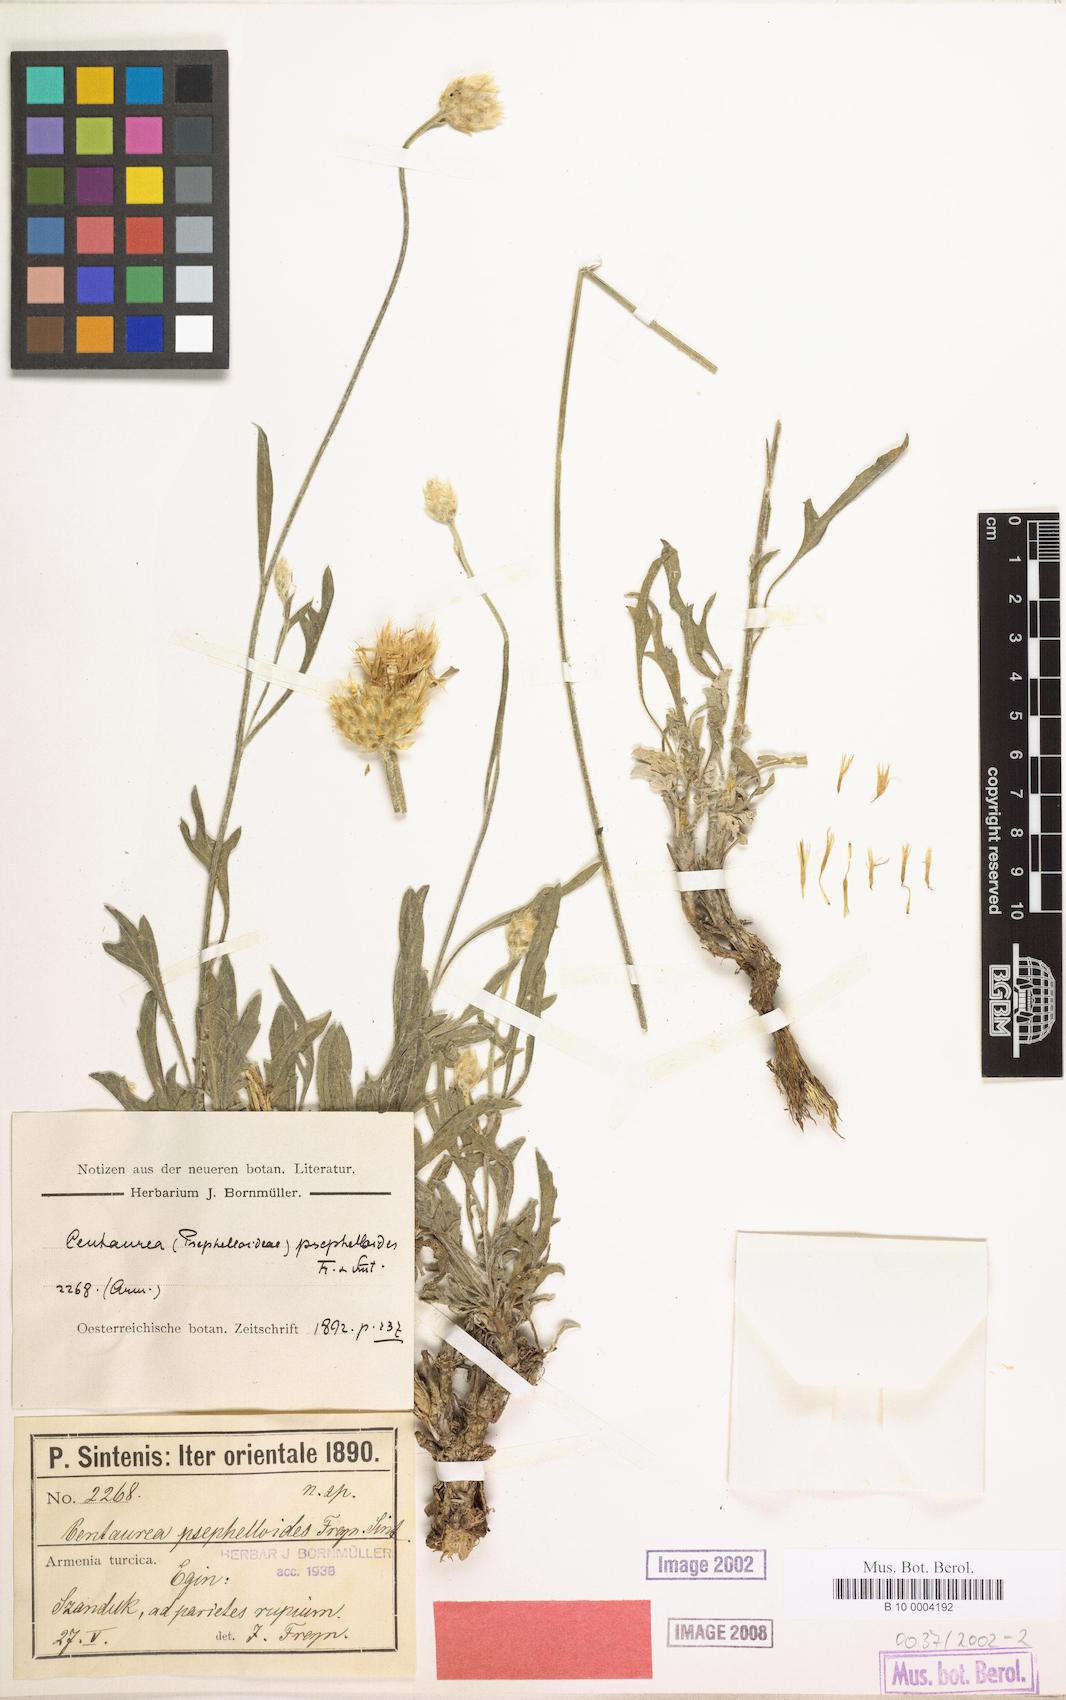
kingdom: Plantae
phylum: Tracheophyta
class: Magnoliopsida
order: Asterales
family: Asteraceae
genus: Psephellus
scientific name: Psephellus psephelloides
